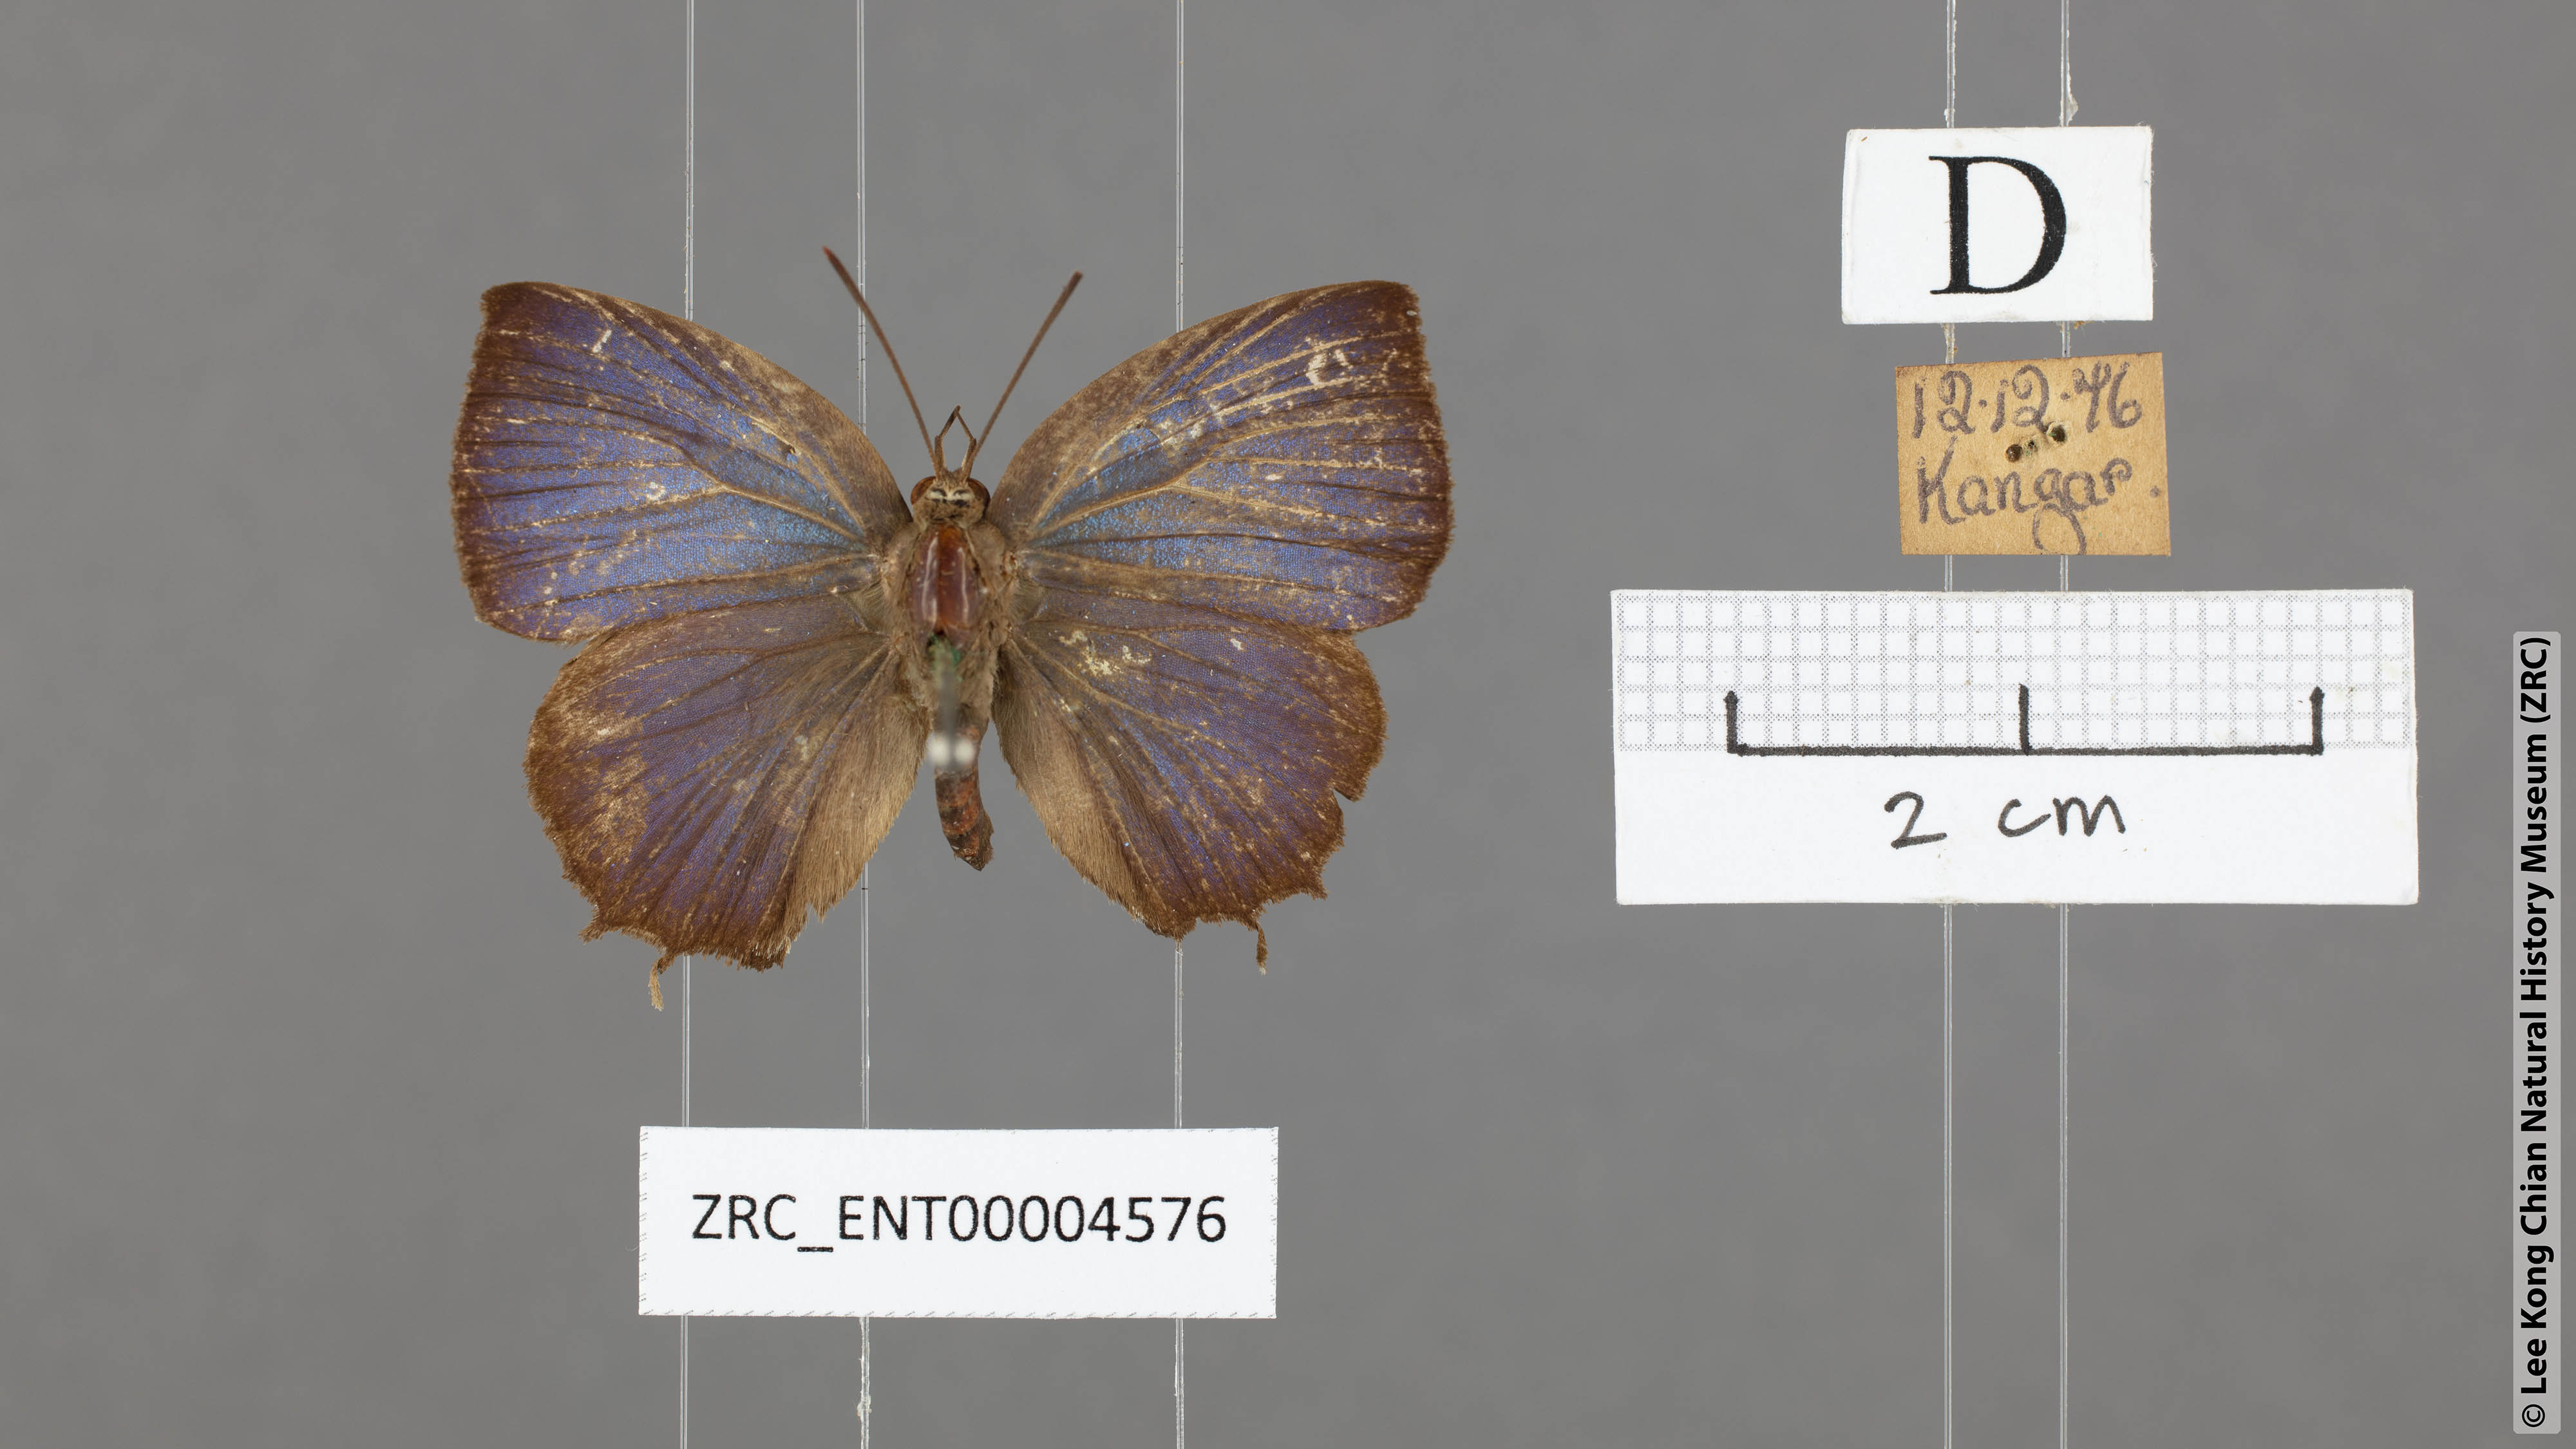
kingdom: Animalia
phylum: Arthropoda
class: Insecta
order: Lepidoptera
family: Lycaenidae
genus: Surendra
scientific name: Surendra vivarna
